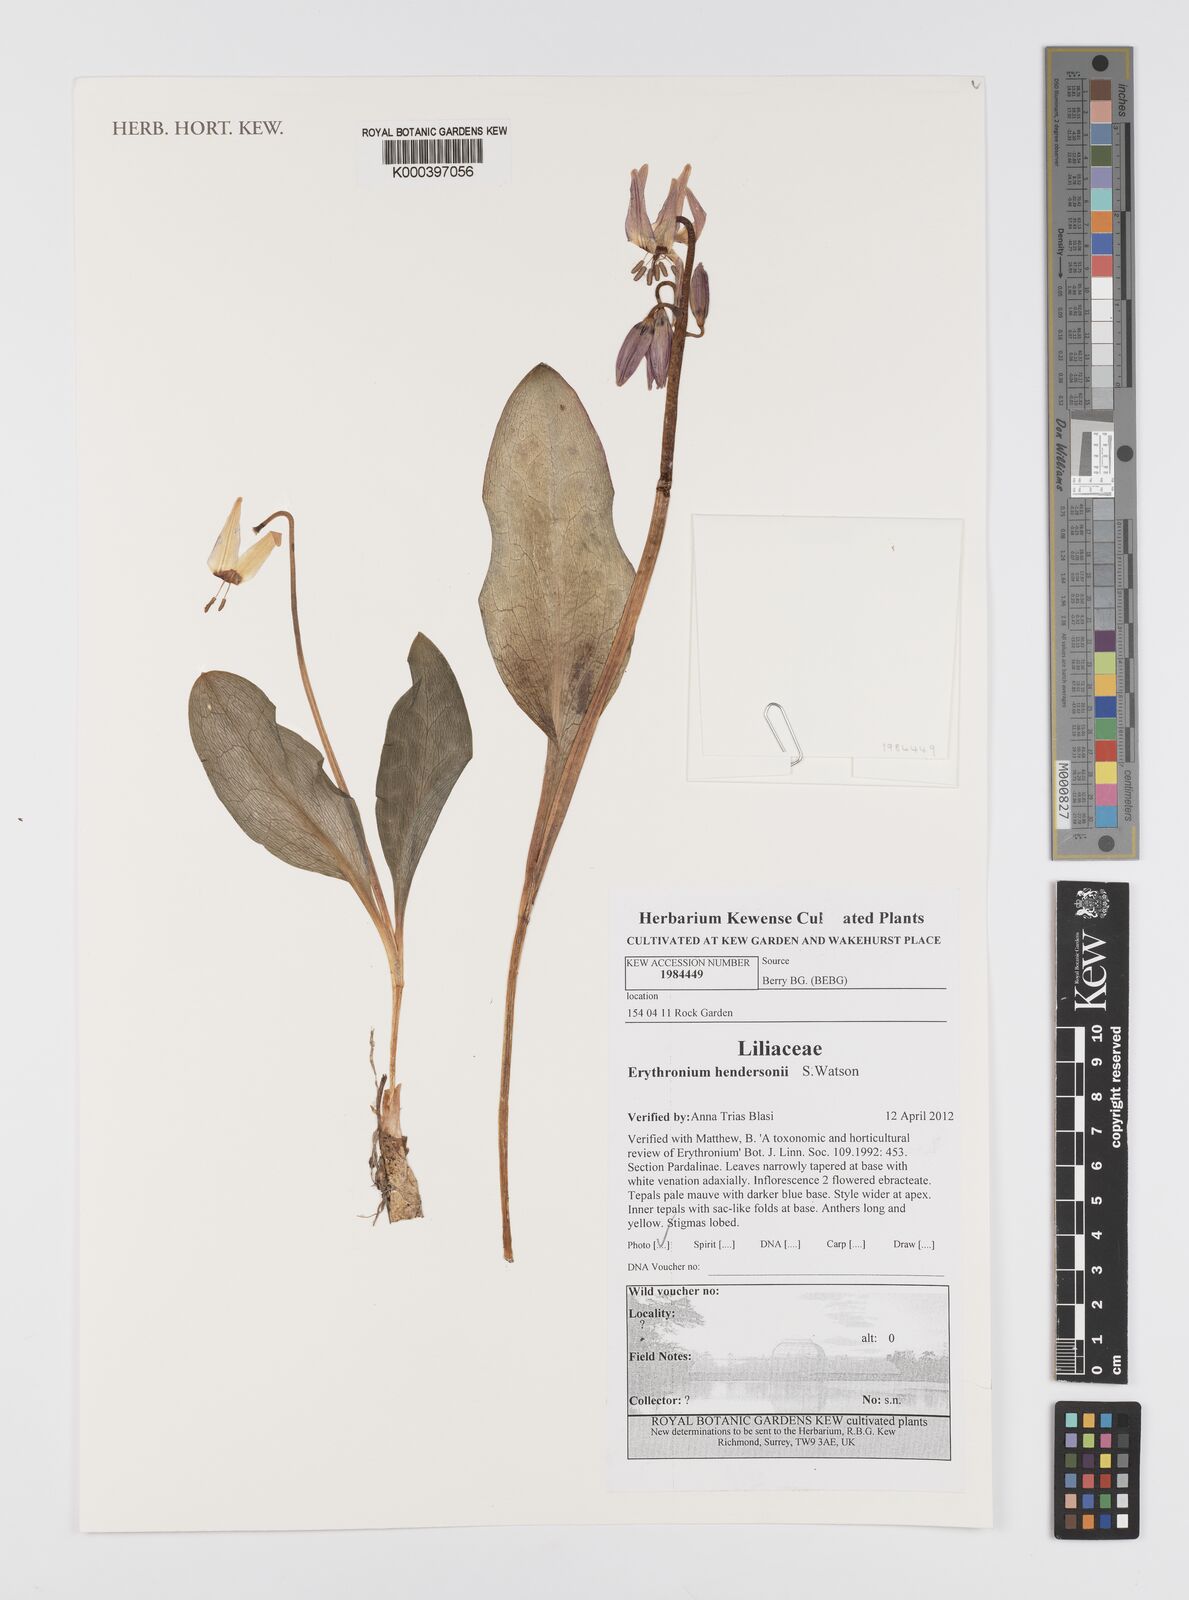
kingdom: Plantae
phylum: Tracheophyta
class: Liliopsida
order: Liliales
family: Liliaceae
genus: Erythronium
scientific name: Erythronium hendersonii
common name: Henderson's fawn-lily
